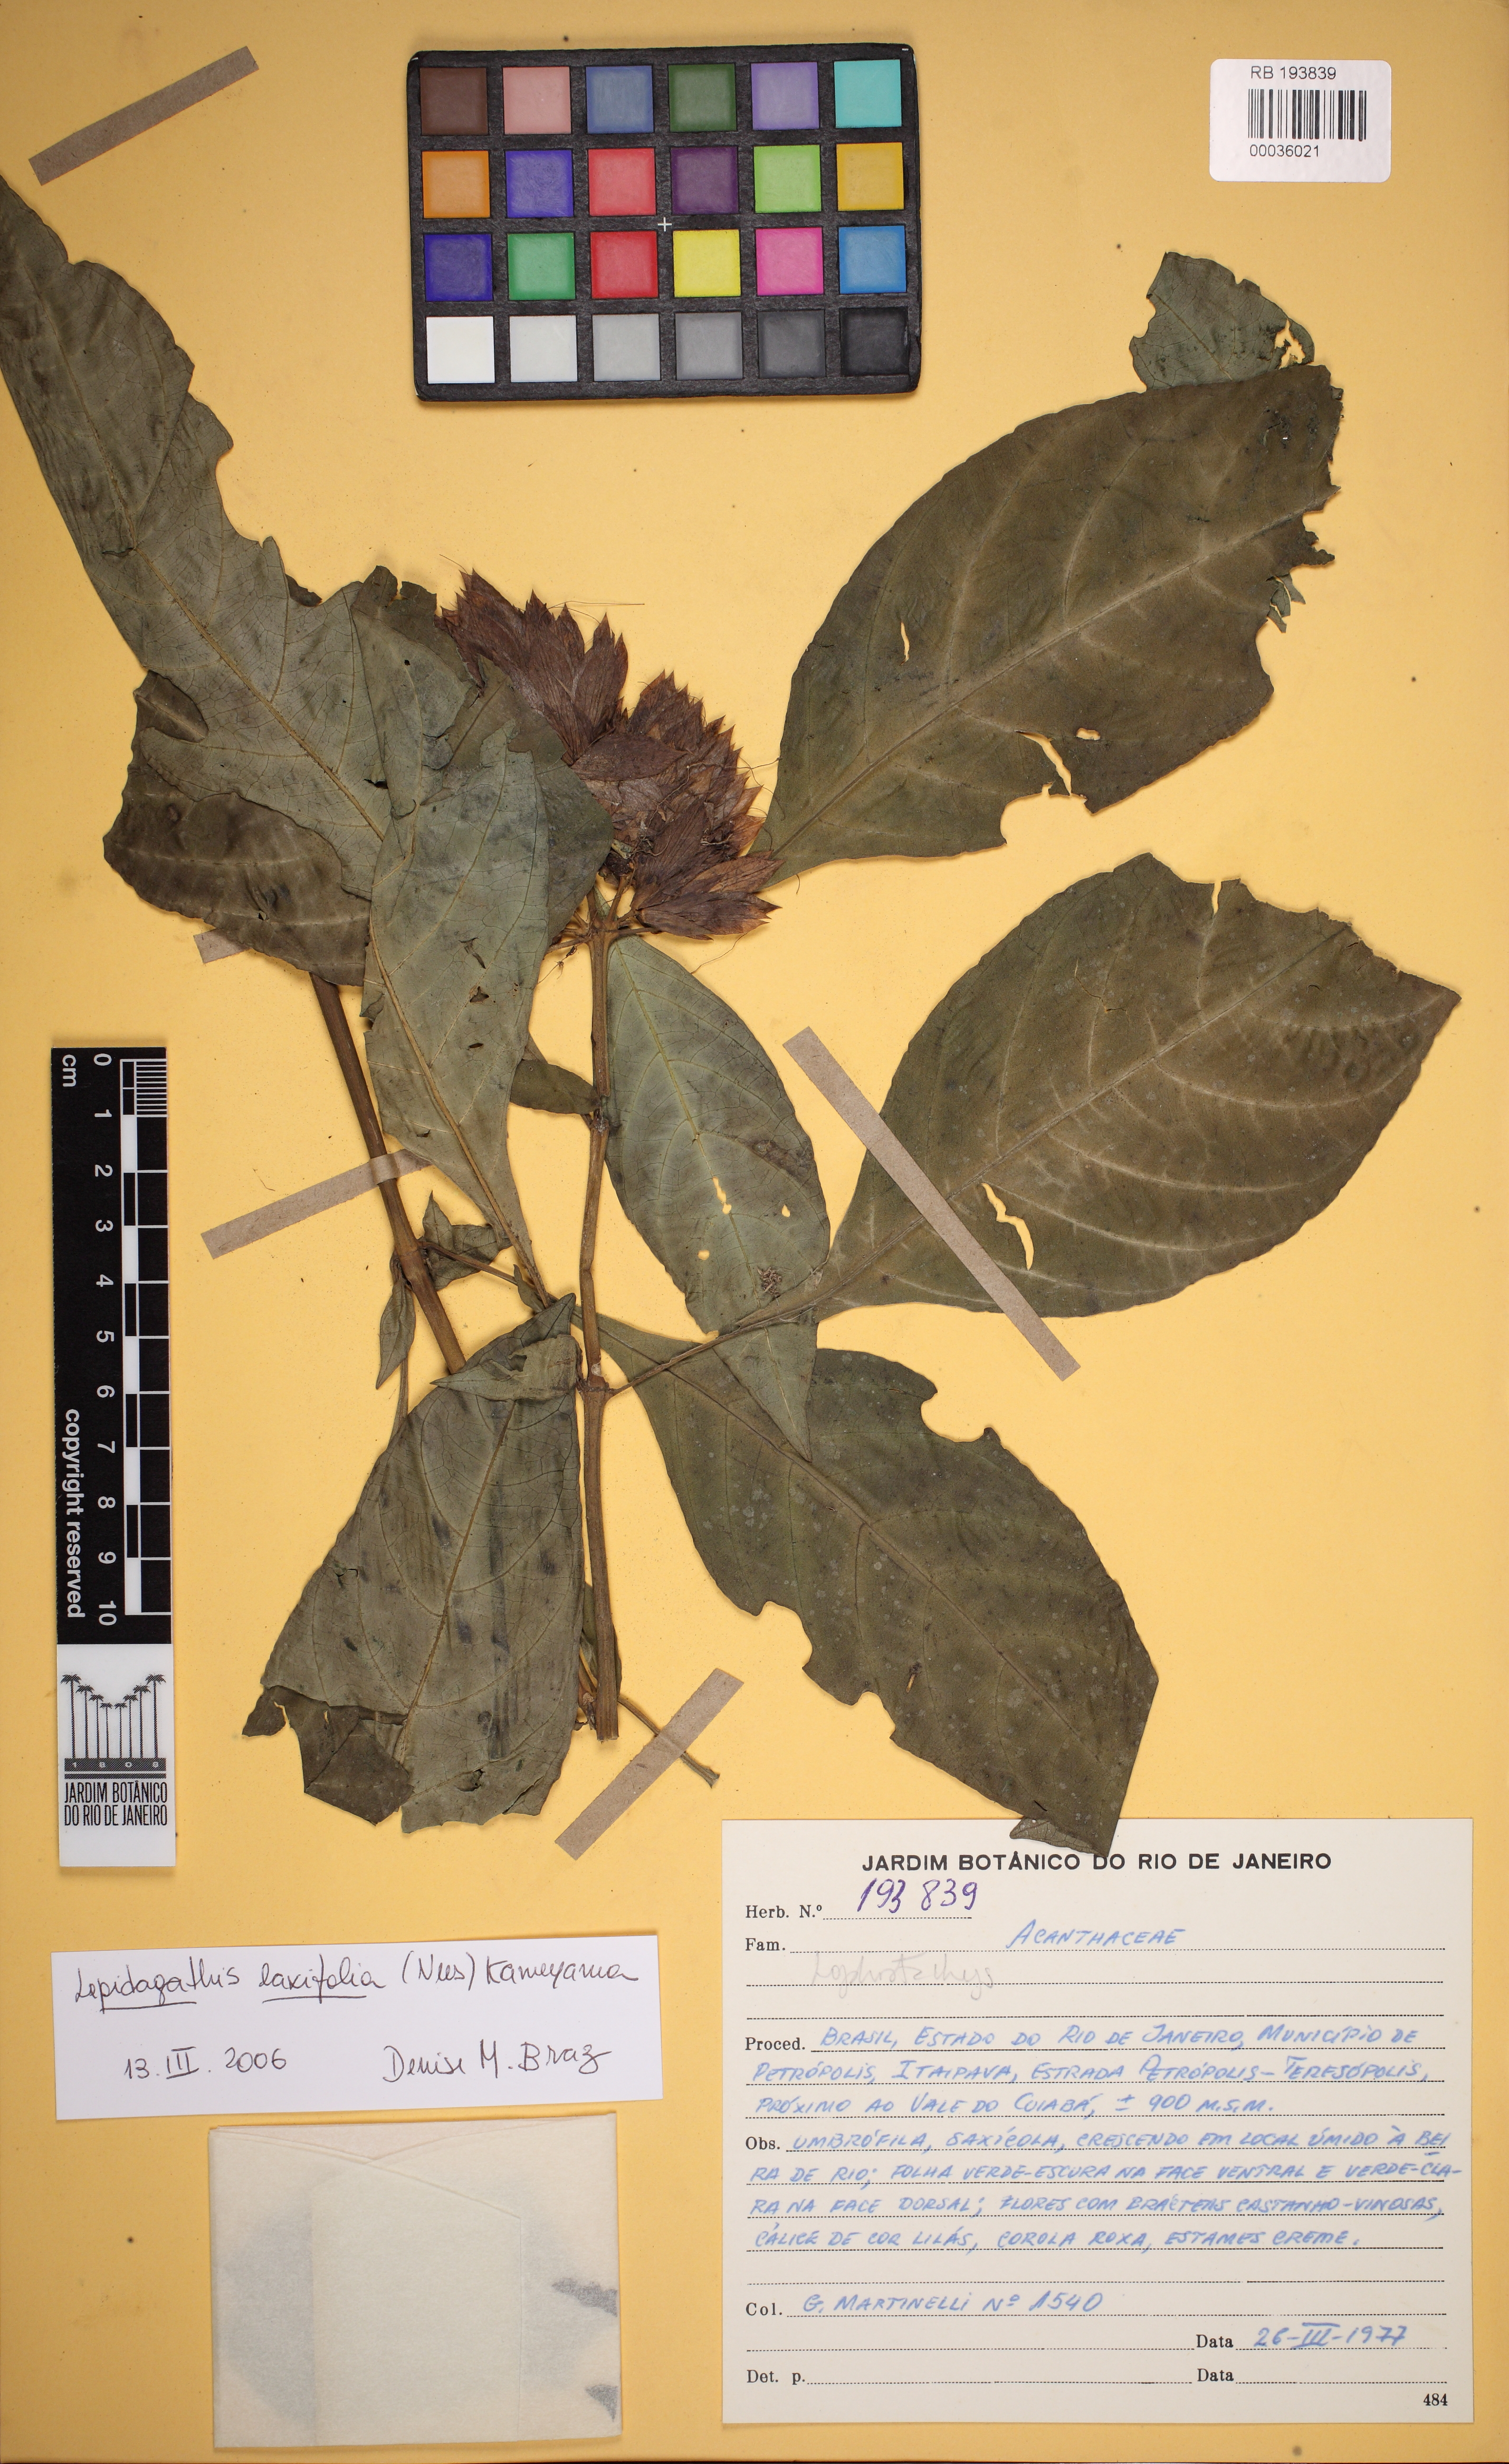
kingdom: Plantae
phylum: Tracheophyta
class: Magnoliopsida
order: Lamiales
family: Acanthaceae
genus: Lepidagathis
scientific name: Lepidagathis laxifolia
